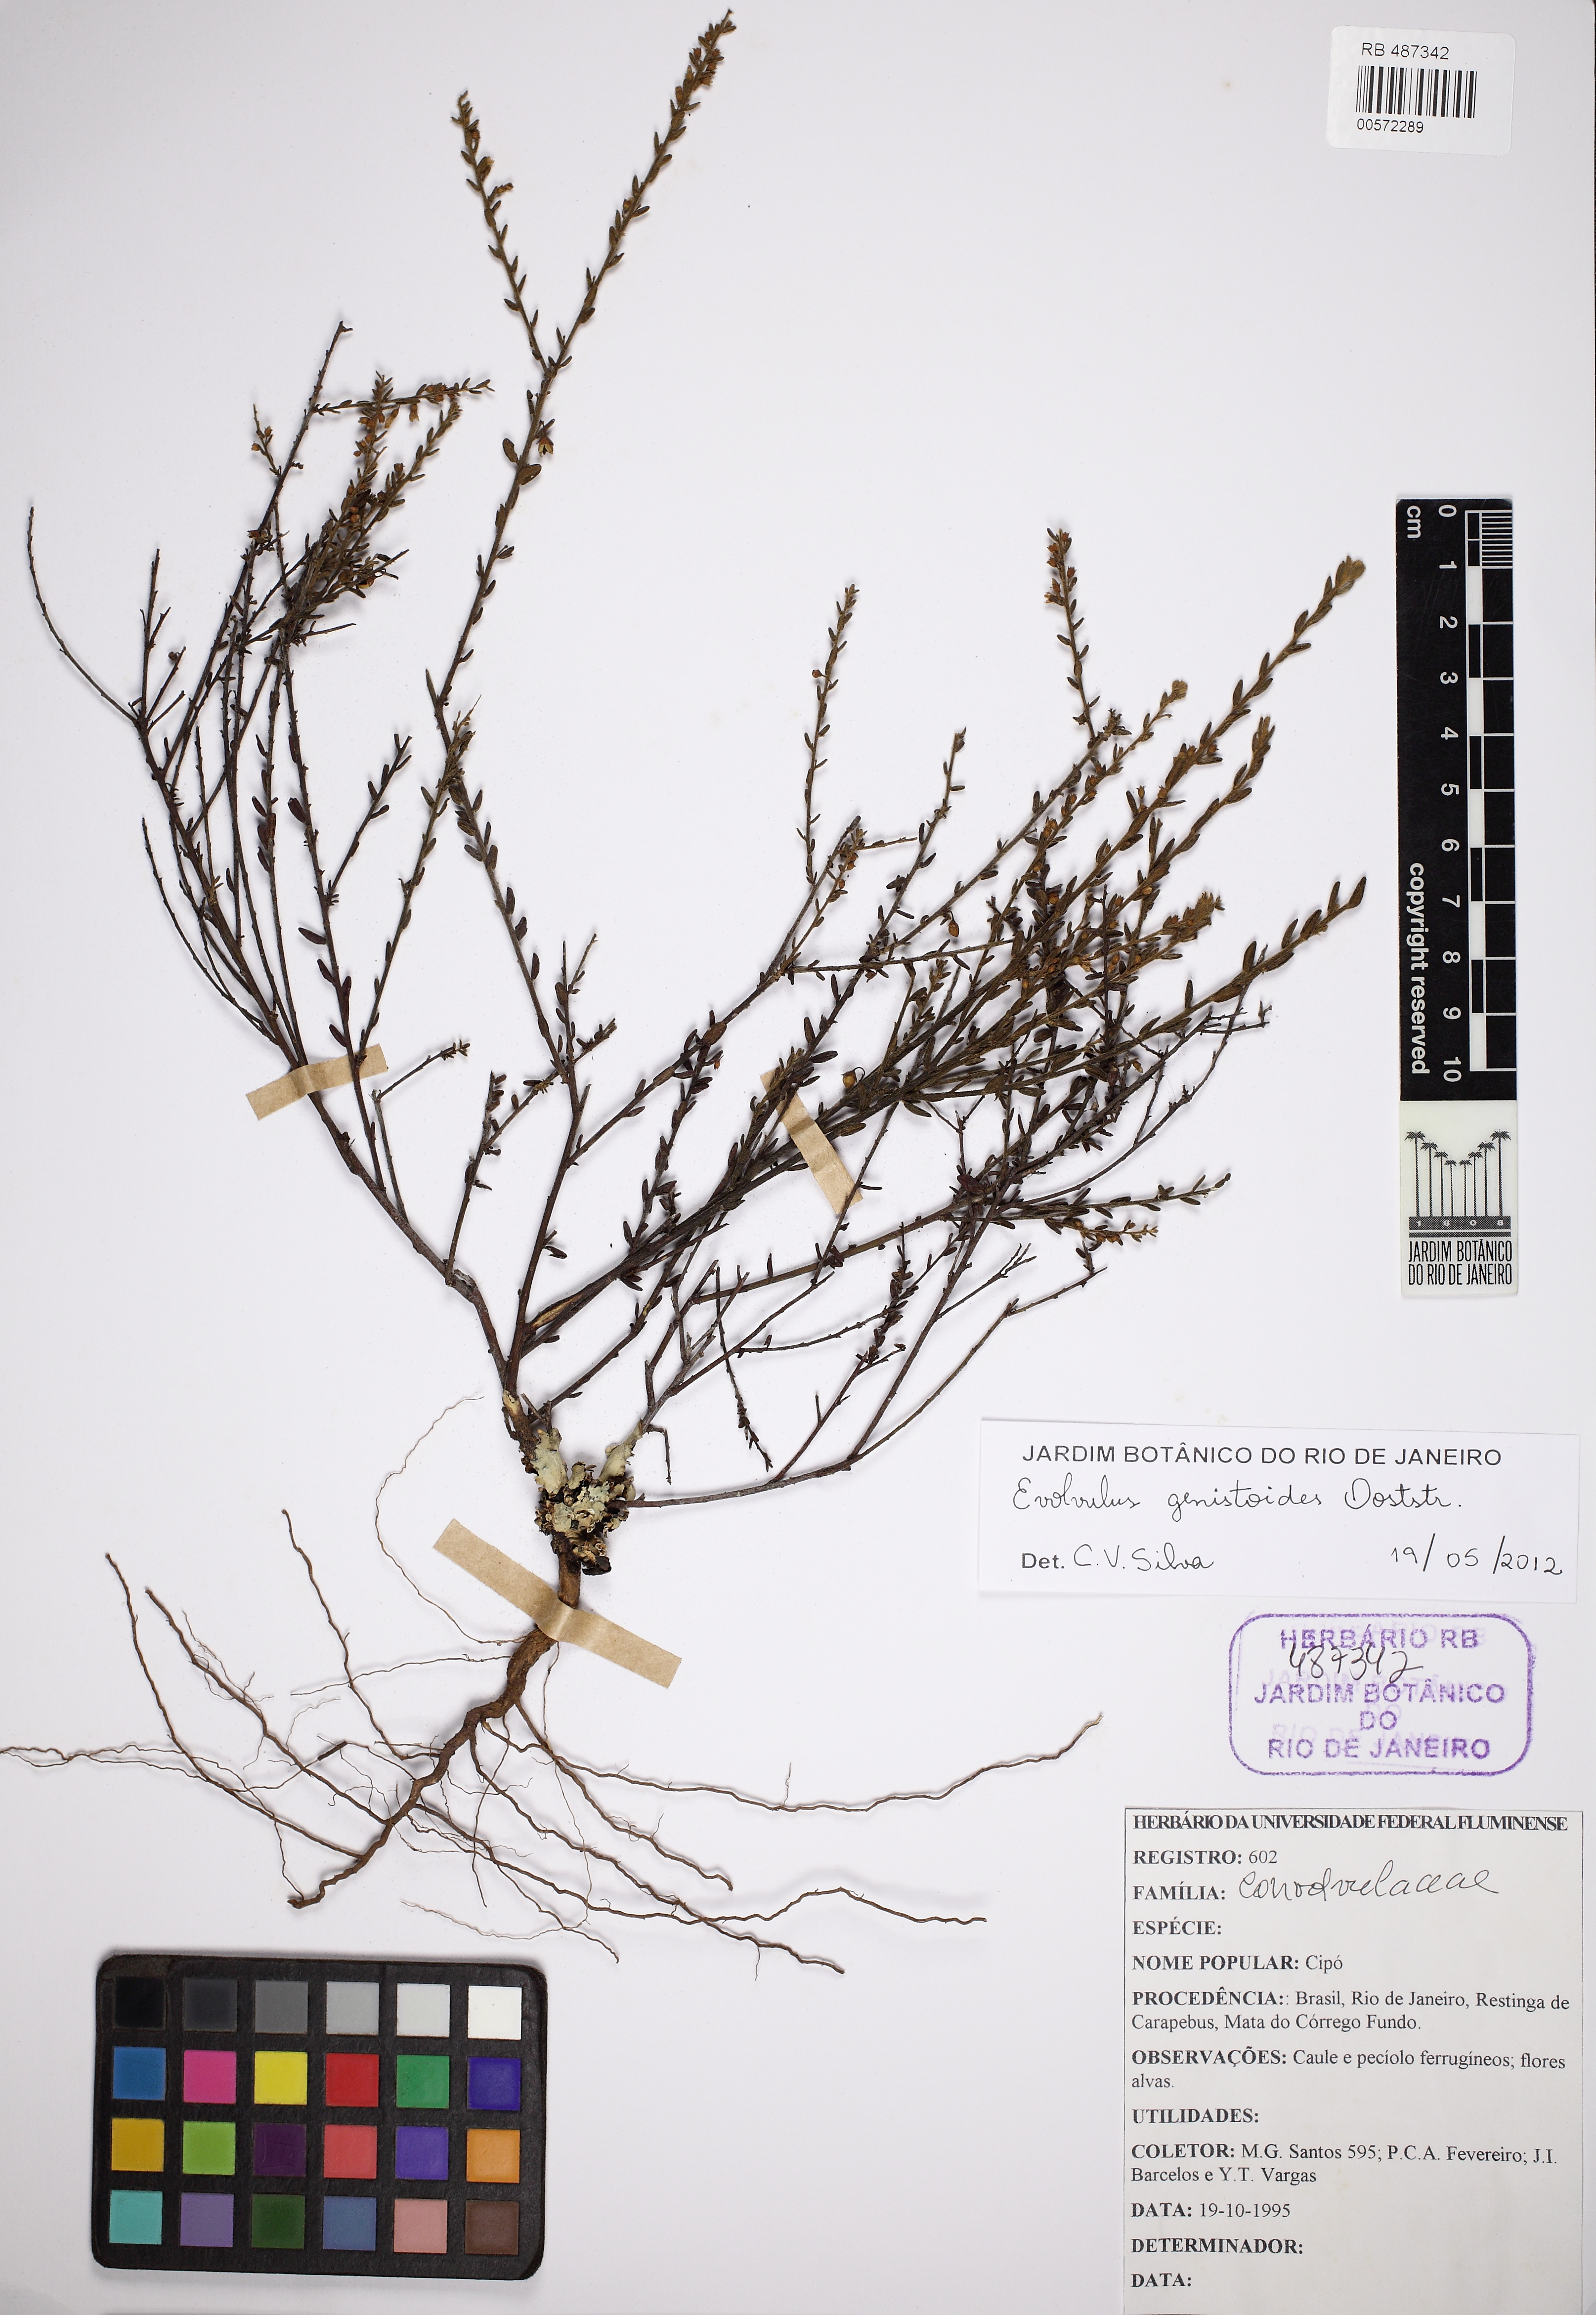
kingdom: Plantae
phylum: Tracheophyta
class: Magnoliopsida
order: Solanales
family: Convolvulaceae
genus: Evolvulus
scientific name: Evolvulus genistoides
